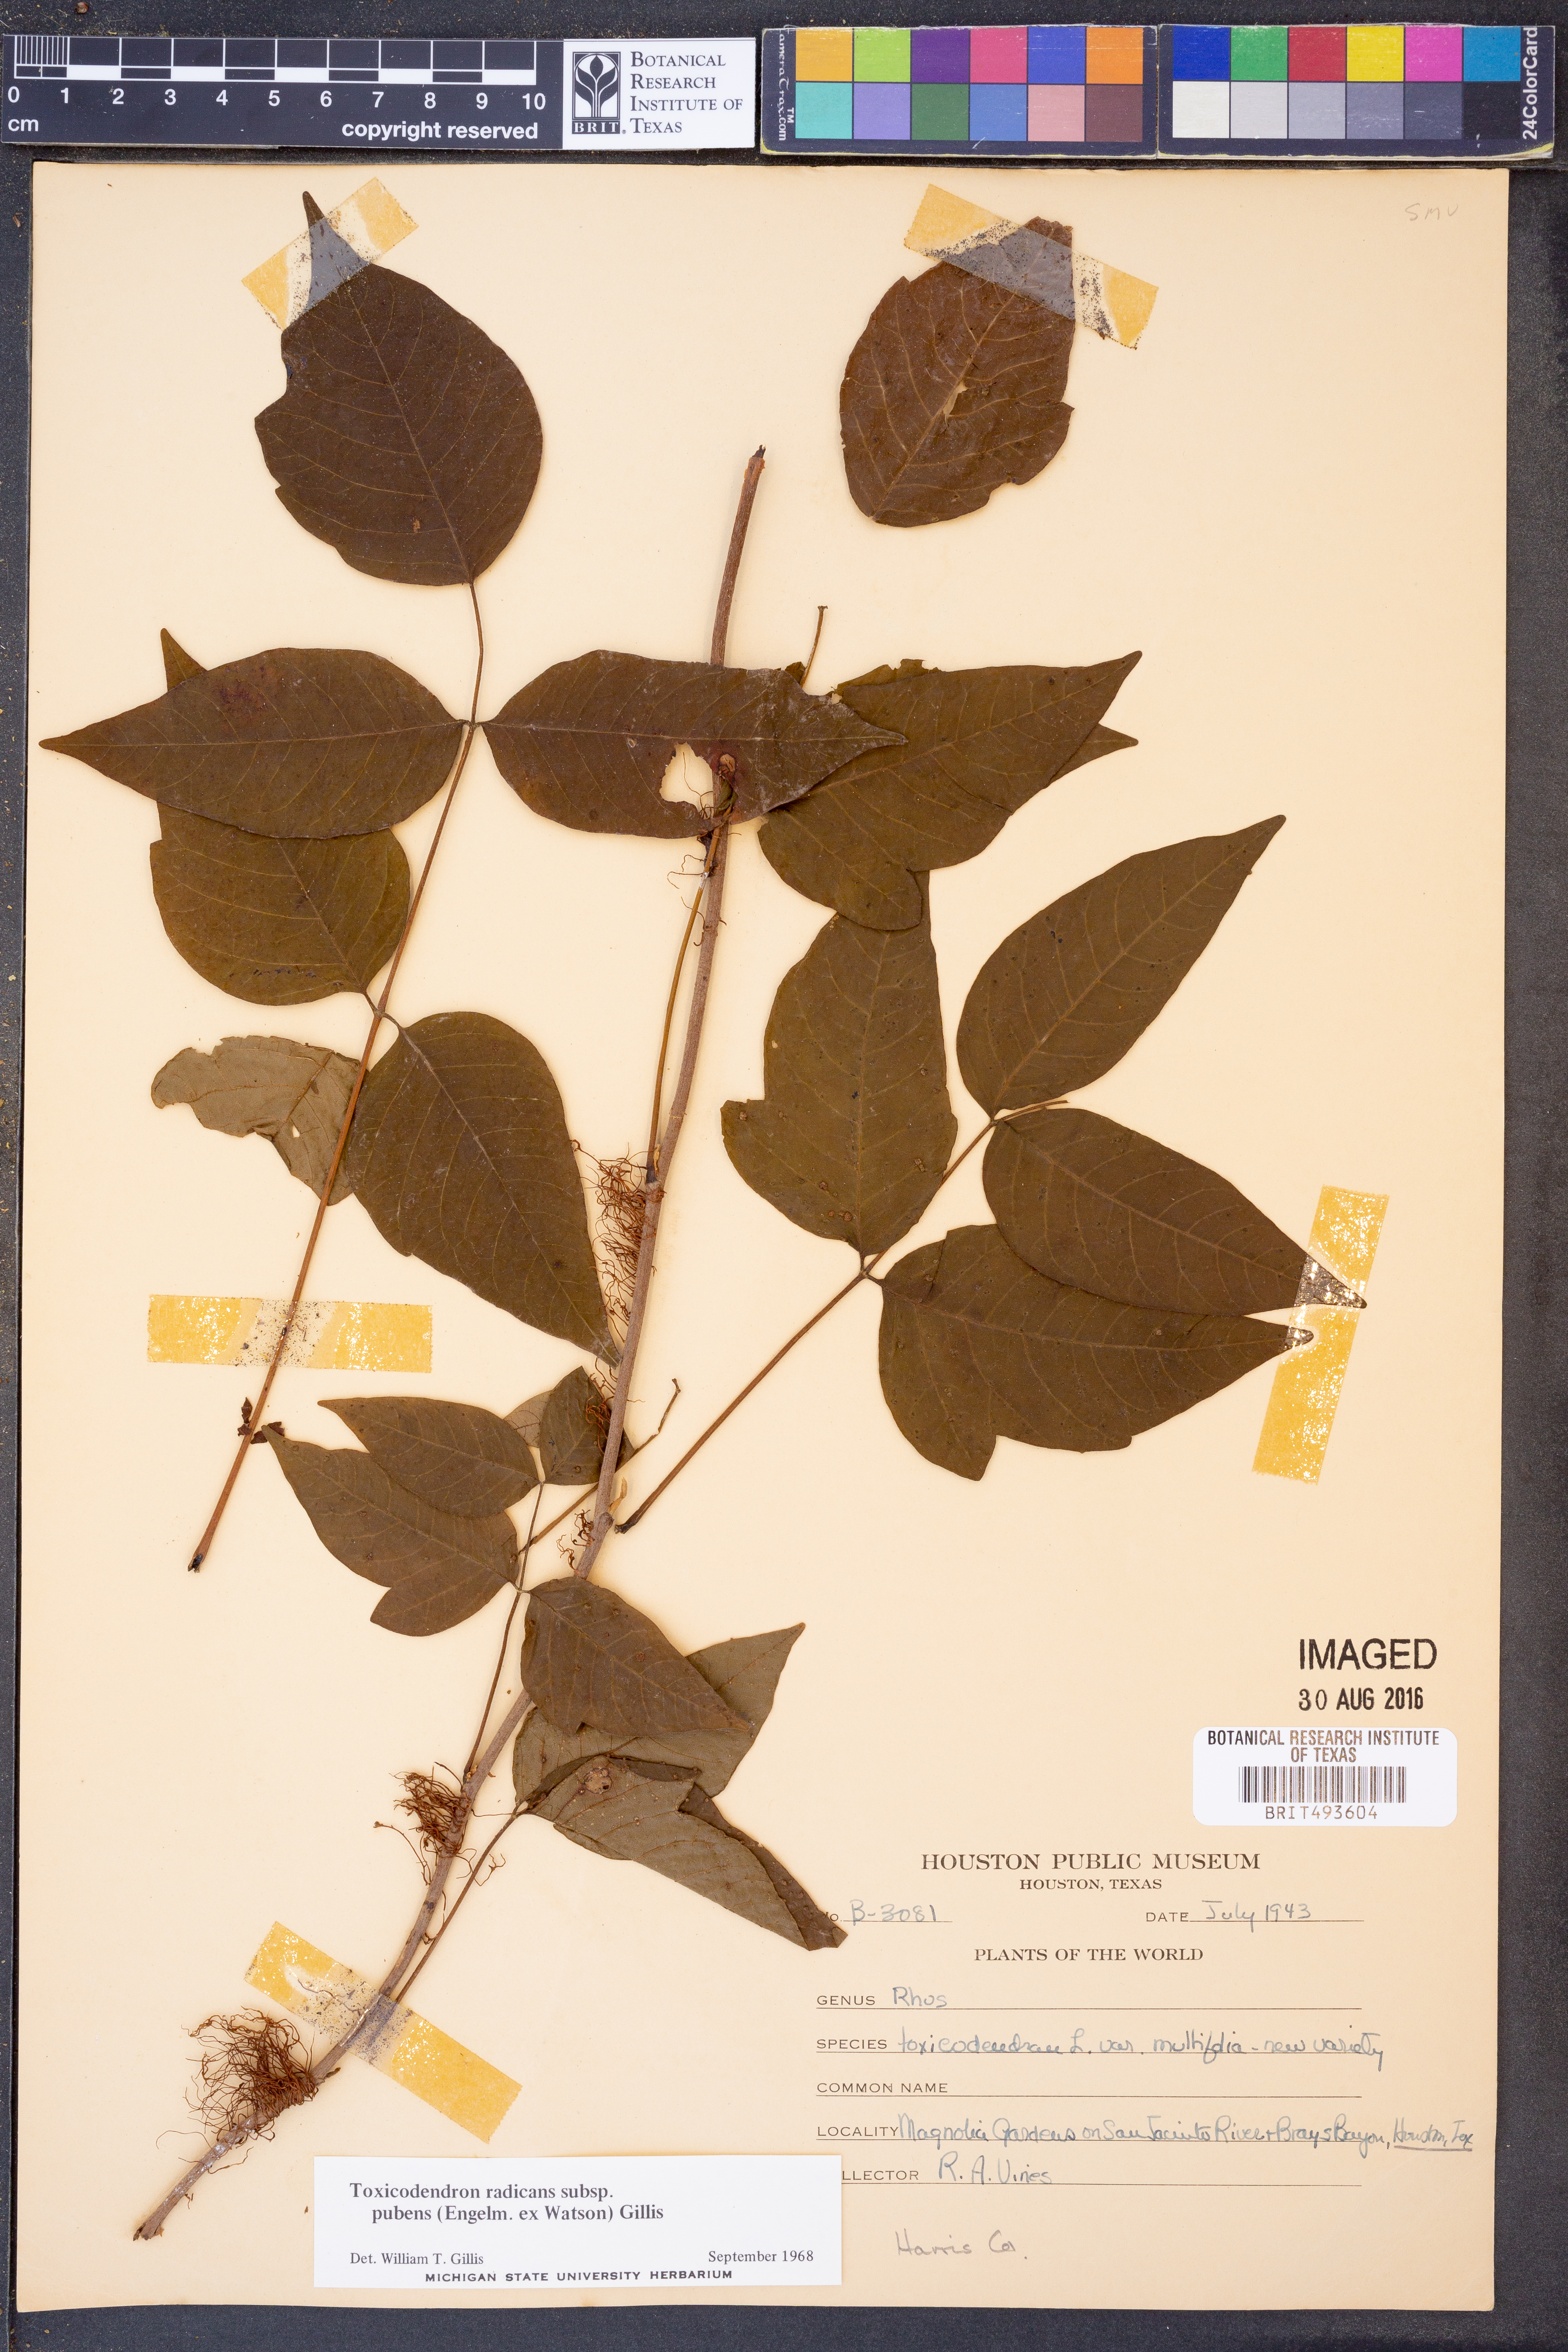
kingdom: Plantae
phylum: Tracheophyta
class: Magnoliopsida
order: Sapindales
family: Anacardiaceae
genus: Toxicodendron
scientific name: Toxicodendron radicans
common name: Poison ivy
